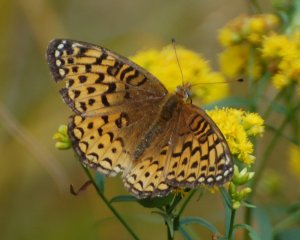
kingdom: Animalia
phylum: Arthropoda
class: Insecta
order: Lepidoptera
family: Nymphalidae
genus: Speyeria
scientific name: Speyeria atlantis
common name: Atlantis Fritillary
